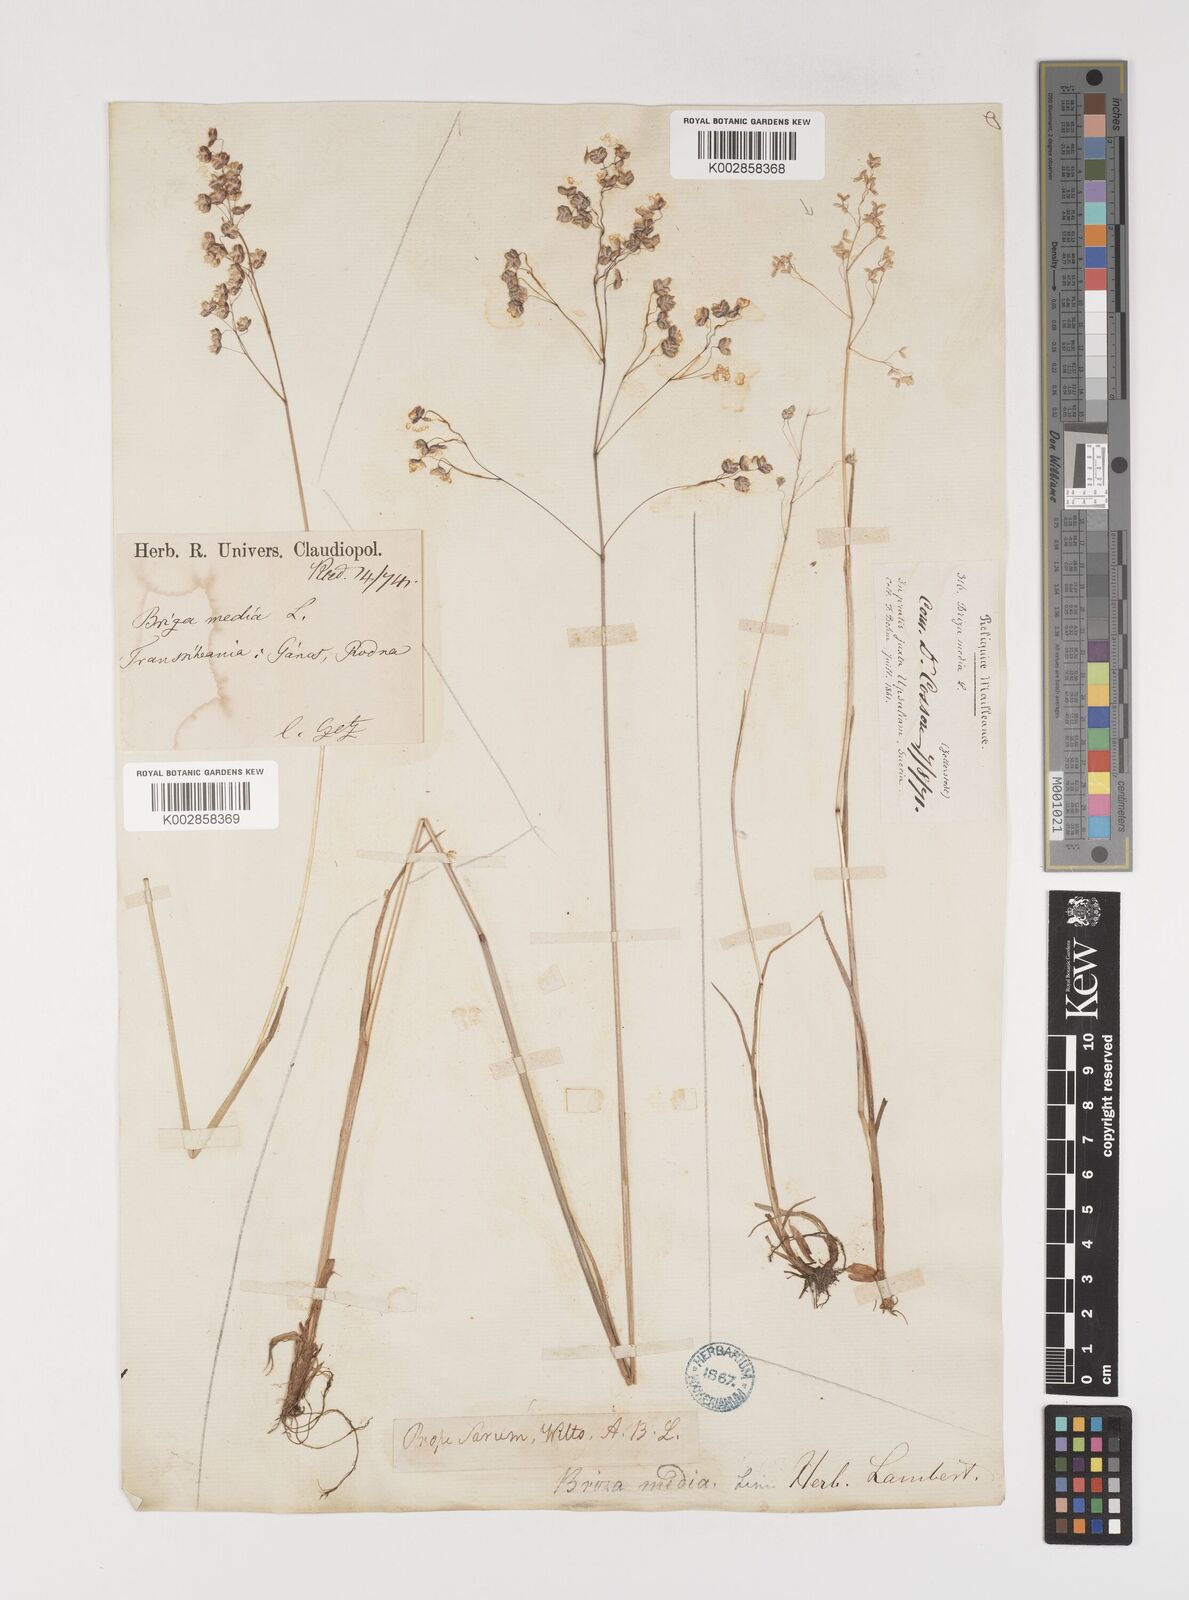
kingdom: Plantae
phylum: Tracheophyta
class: Liliopsida
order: Poales
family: Poaceae
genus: Briza
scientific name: Briza media
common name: Quaking grass
